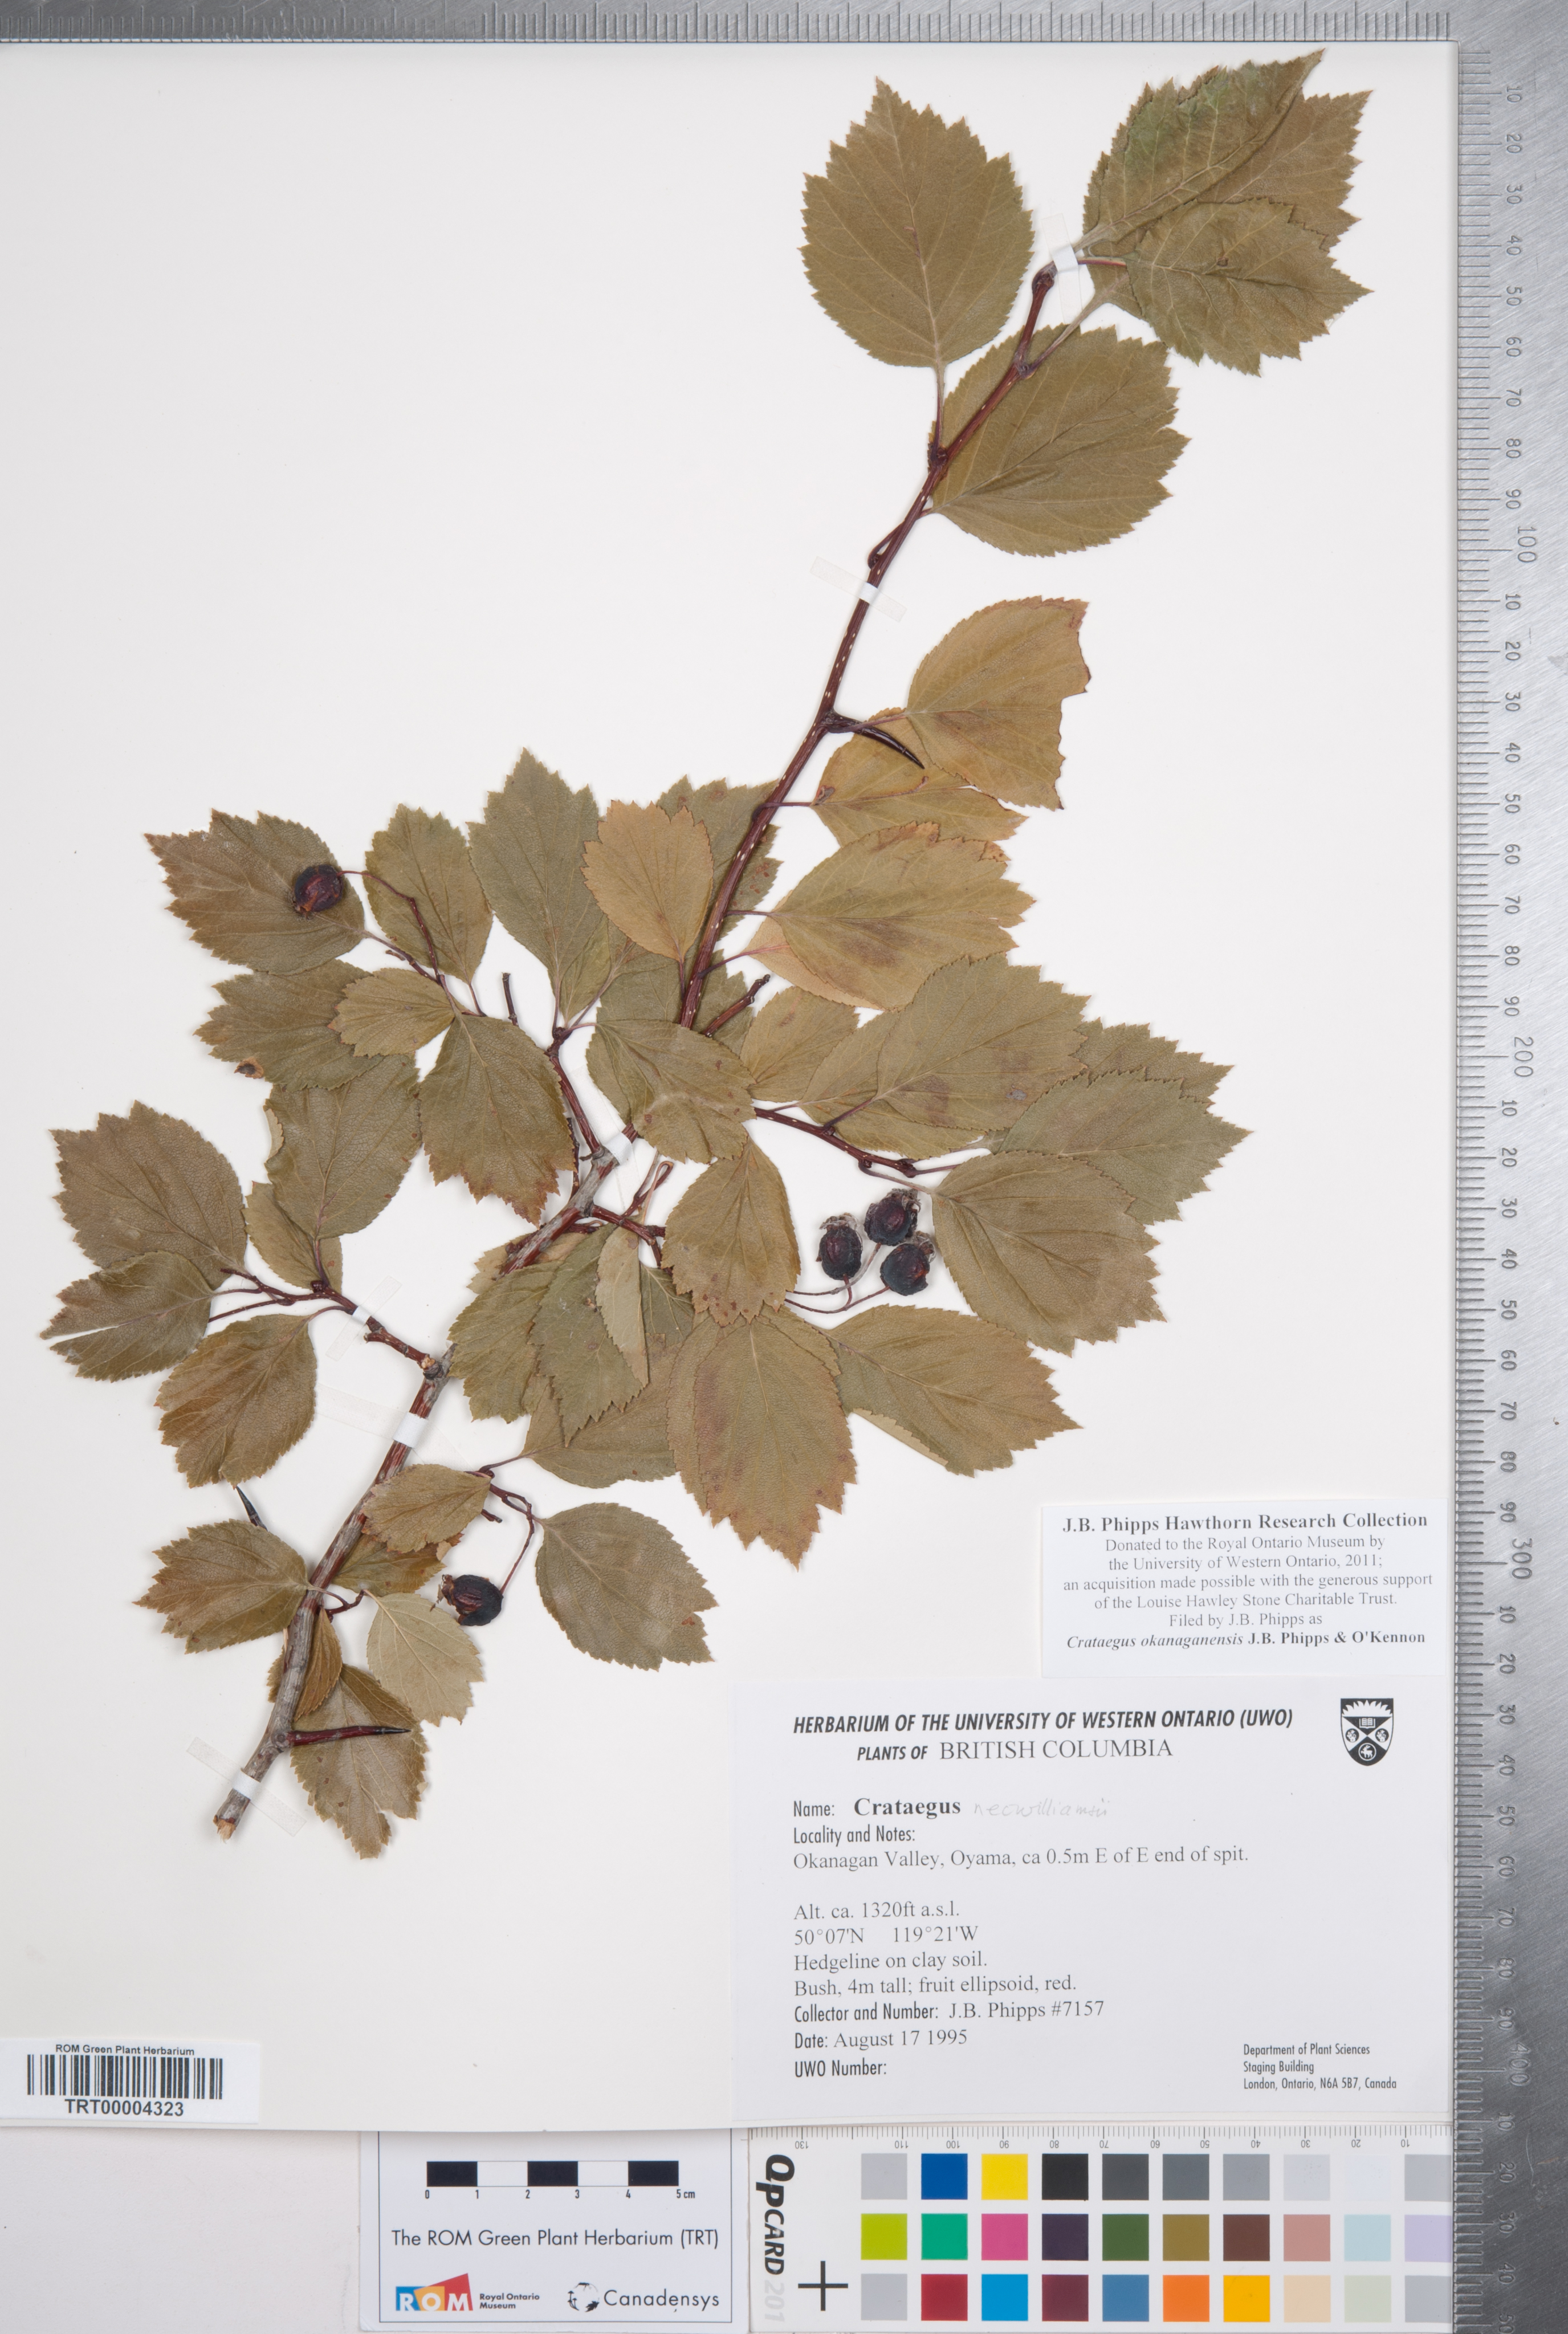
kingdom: Plantae
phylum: Tracheophyta
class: Magnoliopsida
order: Rosales
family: Rosaceae
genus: Crataegus
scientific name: Crataegus okanaganensis
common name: Okanagan valley hawthorn
